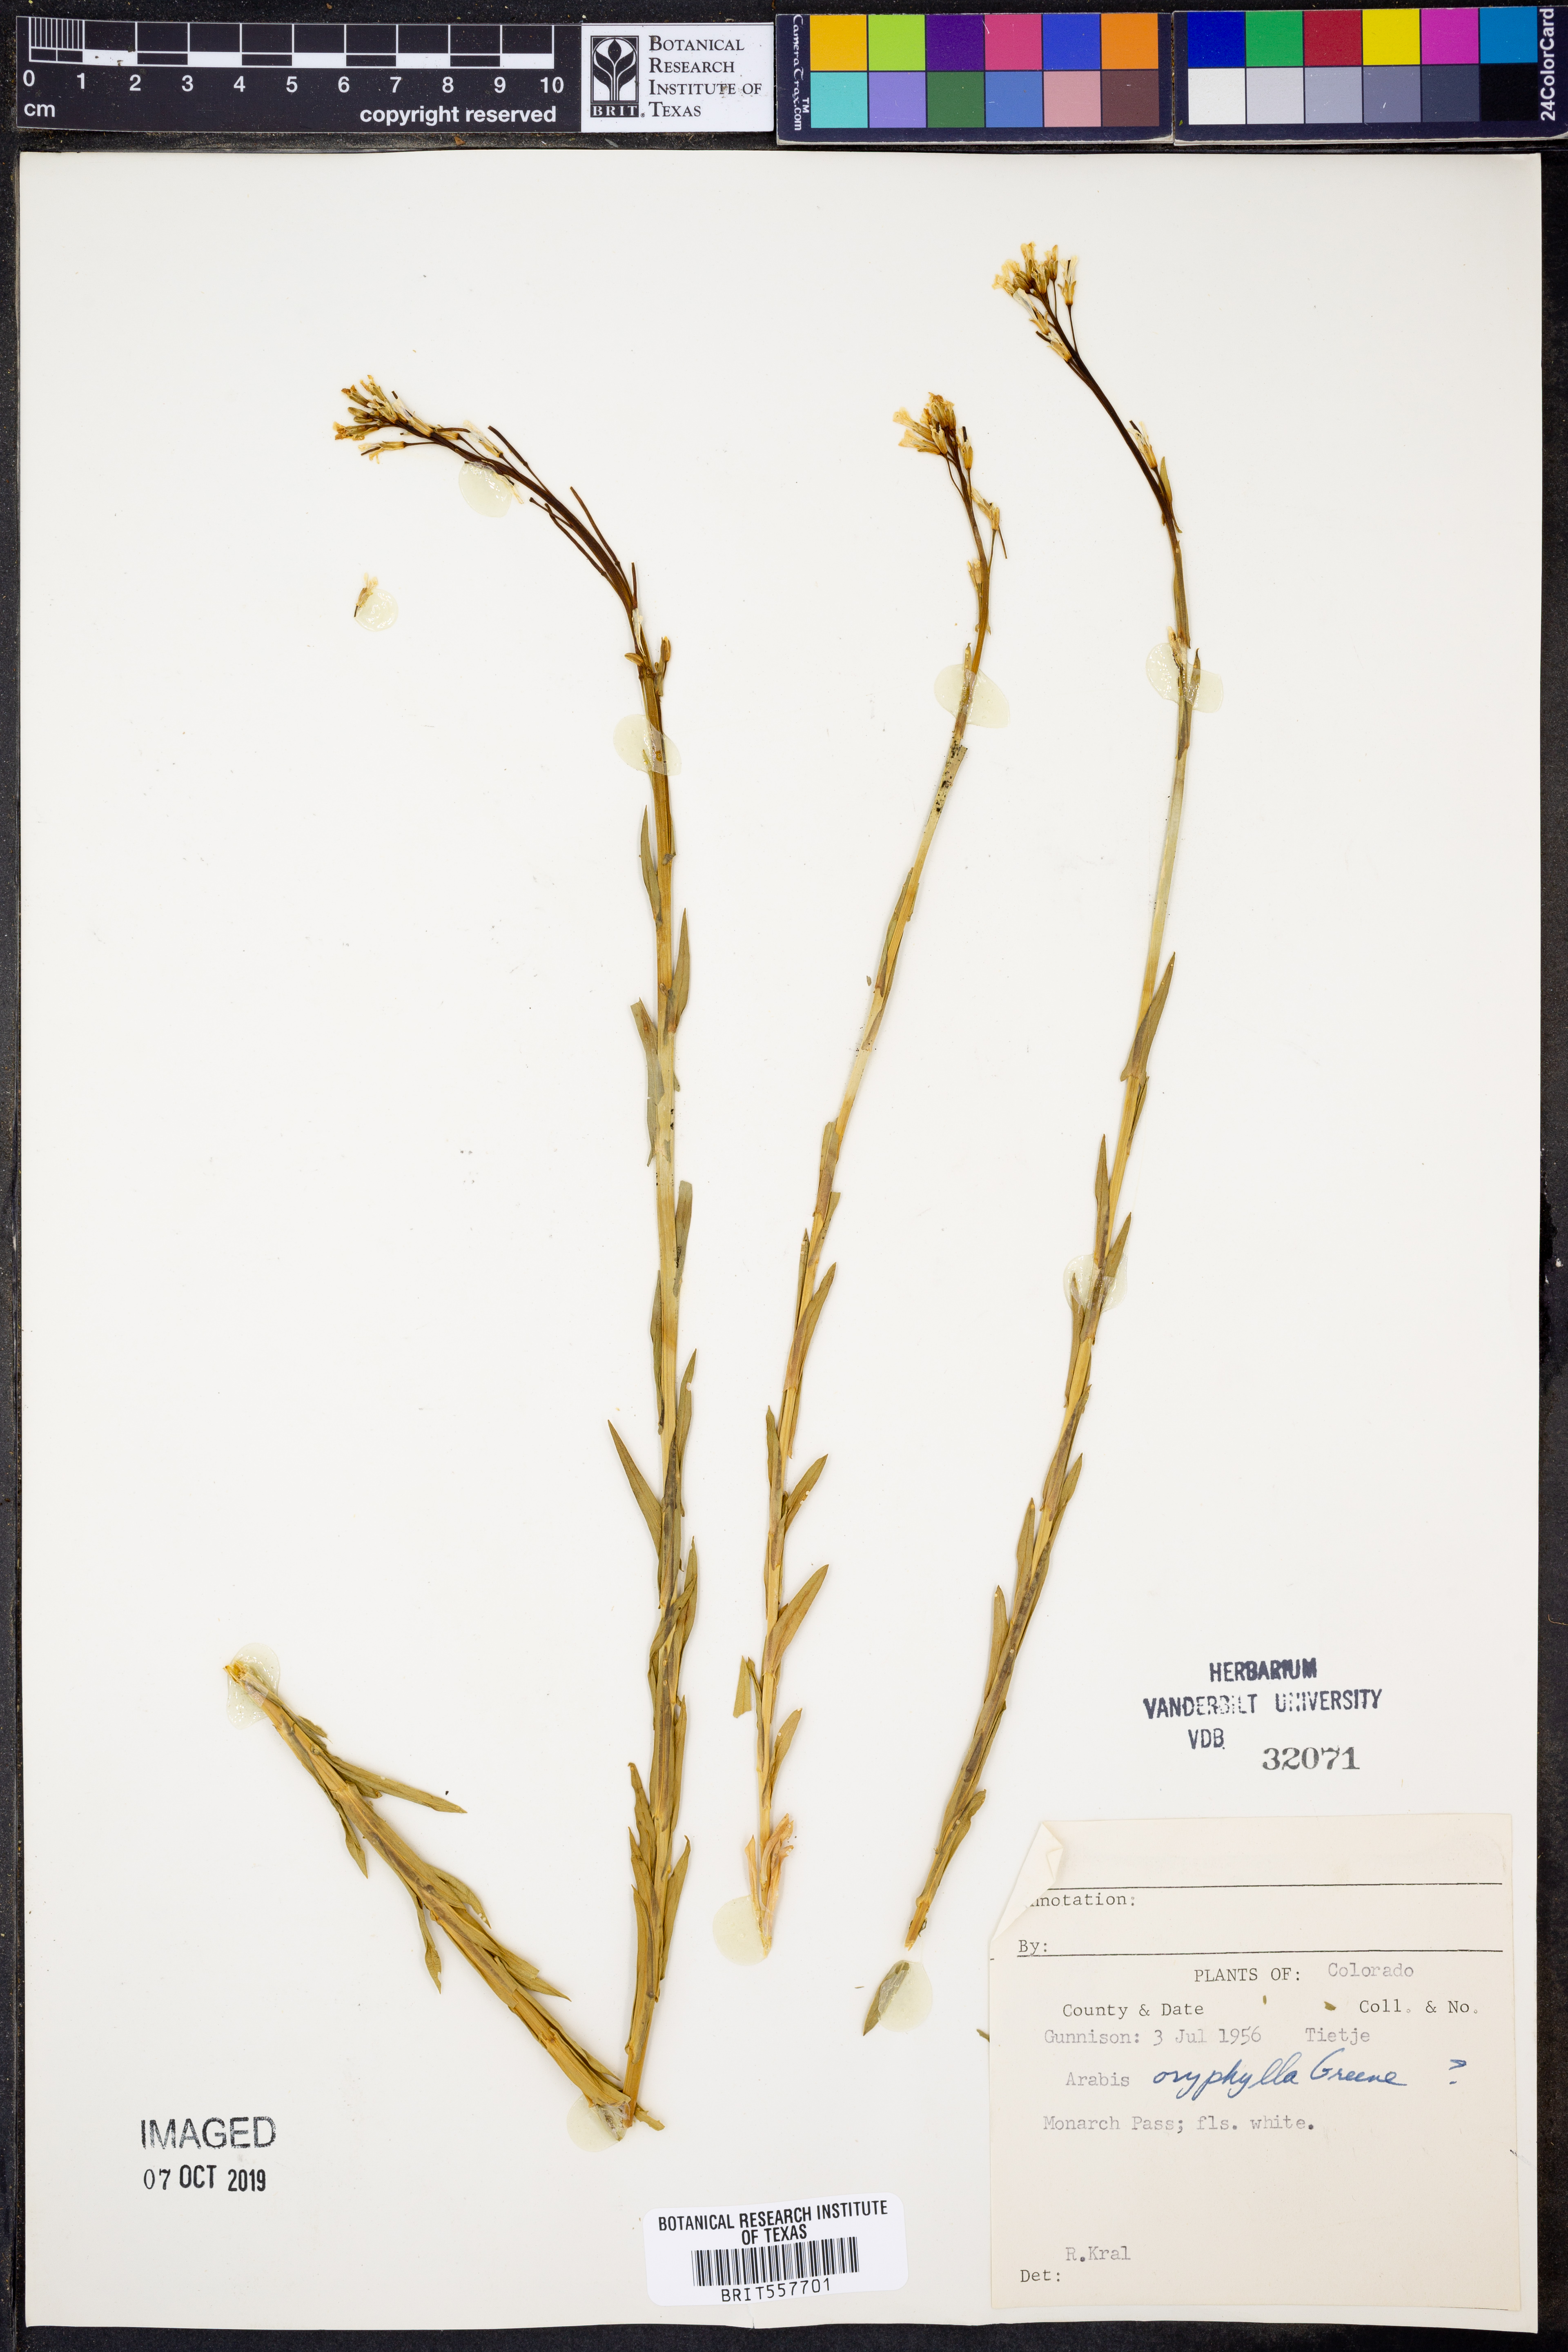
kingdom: Plantae
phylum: Tracheophyta
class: Magnoliopsida
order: Brassicales
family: Brassicaceae
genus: Boechera
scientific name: Boechera stricta
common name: Canadian rockcress
